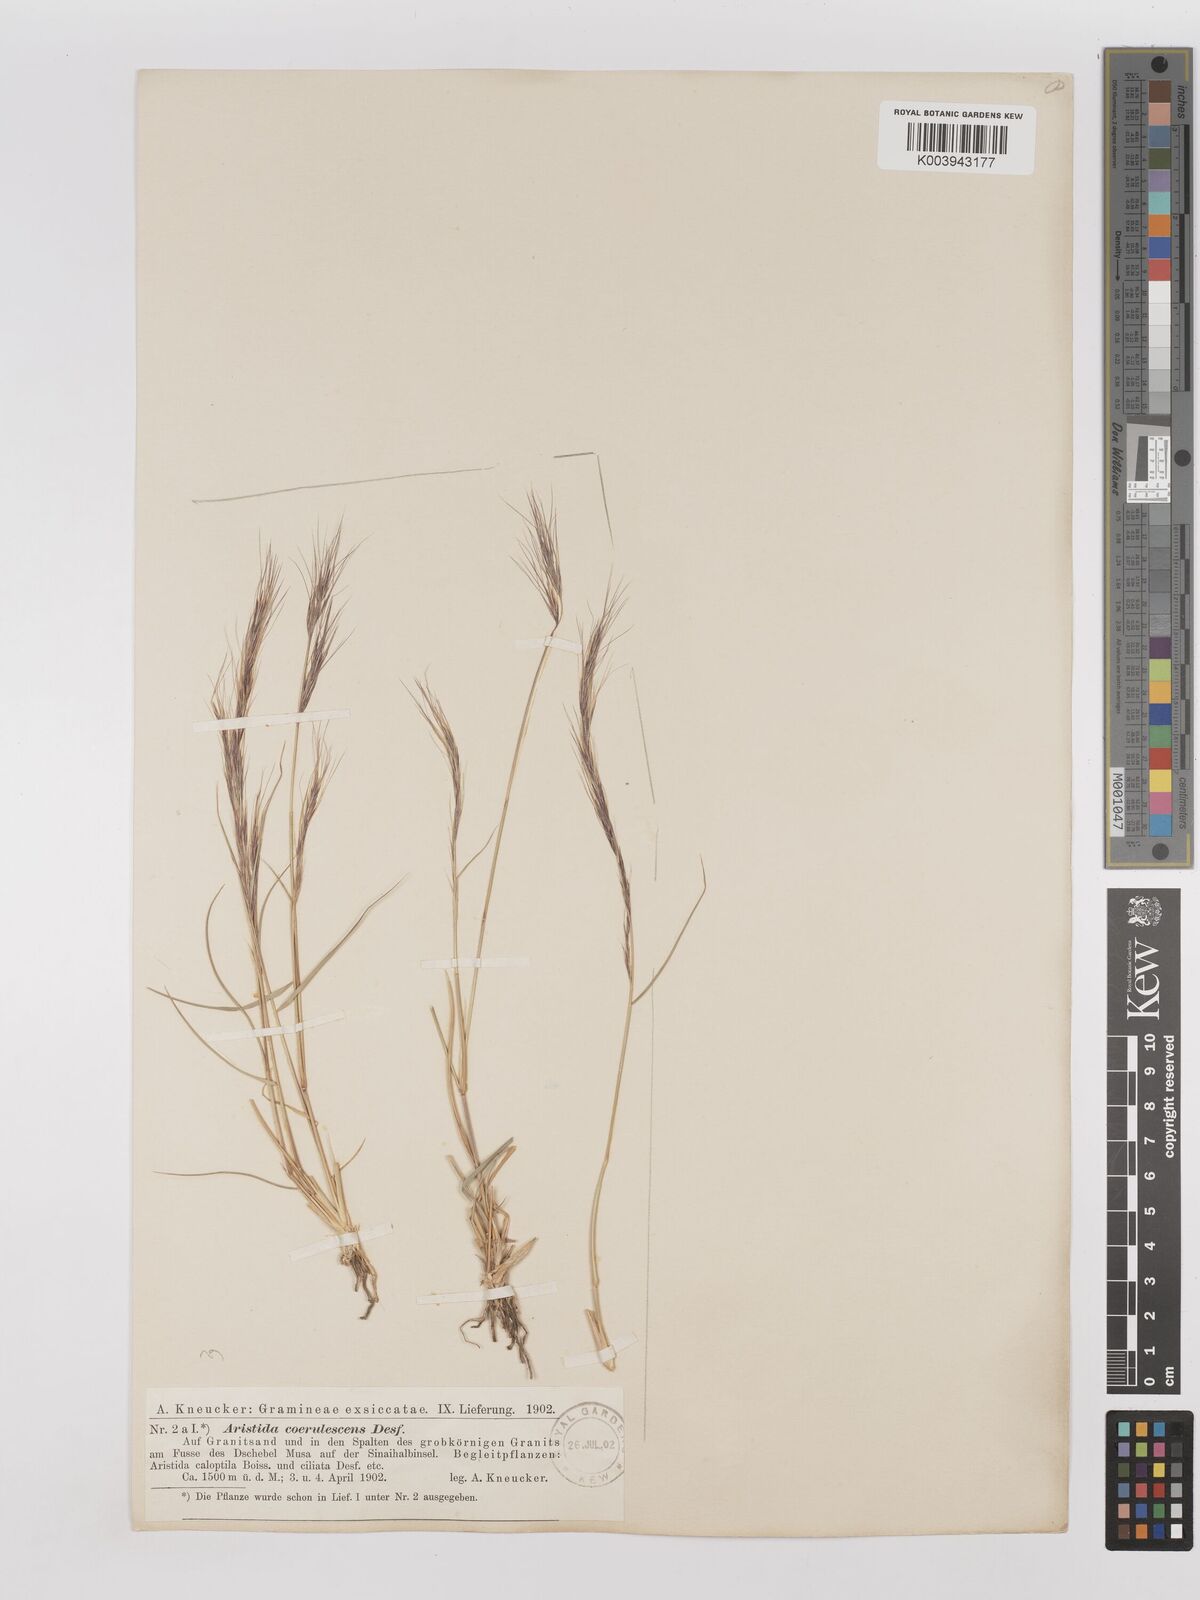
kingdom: Plantae
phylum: Tracheophyta
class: Liliopsida
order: Poales
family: Poaceae
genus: Aristida
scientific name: Aristida adscensionis
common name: Sixweeks threeawn
